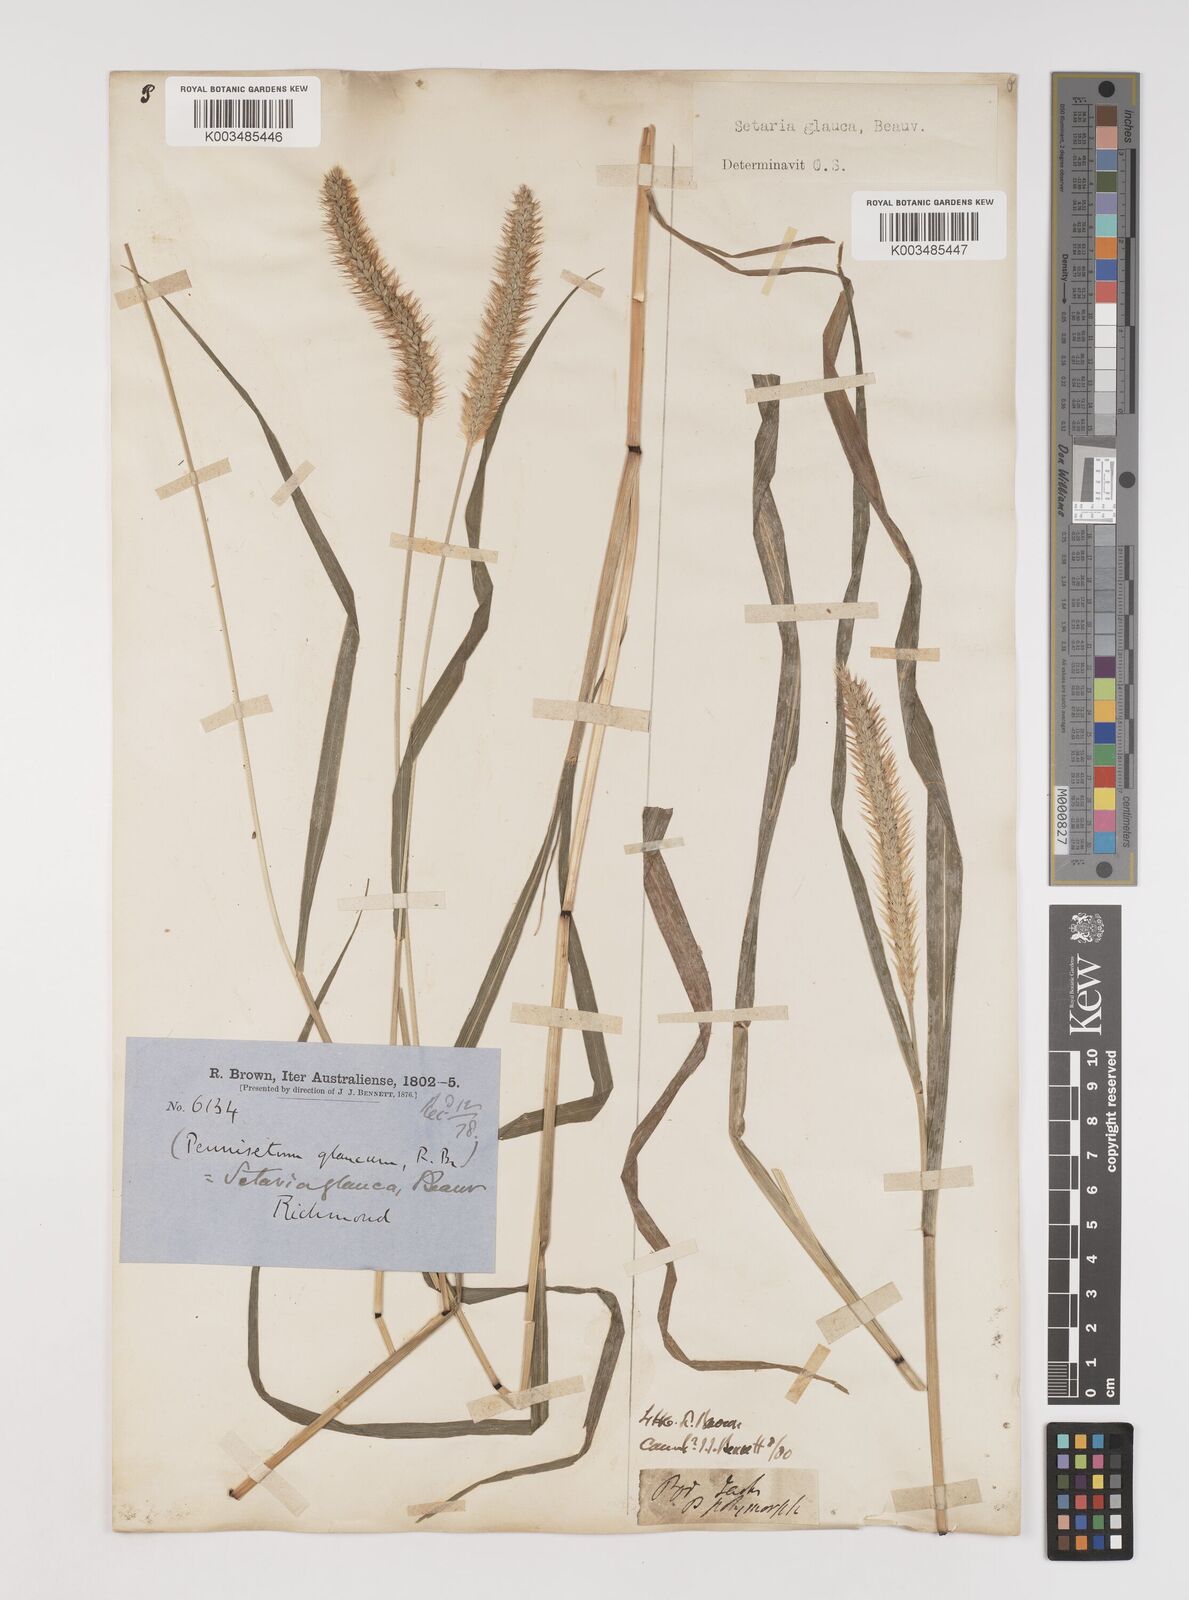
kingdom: Plantae
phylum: Tracheophyta
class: Liliopsida
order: Poales
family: Poaceae
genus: Setaria
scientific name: Setaria pumila
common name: Yellow bristle-grass
